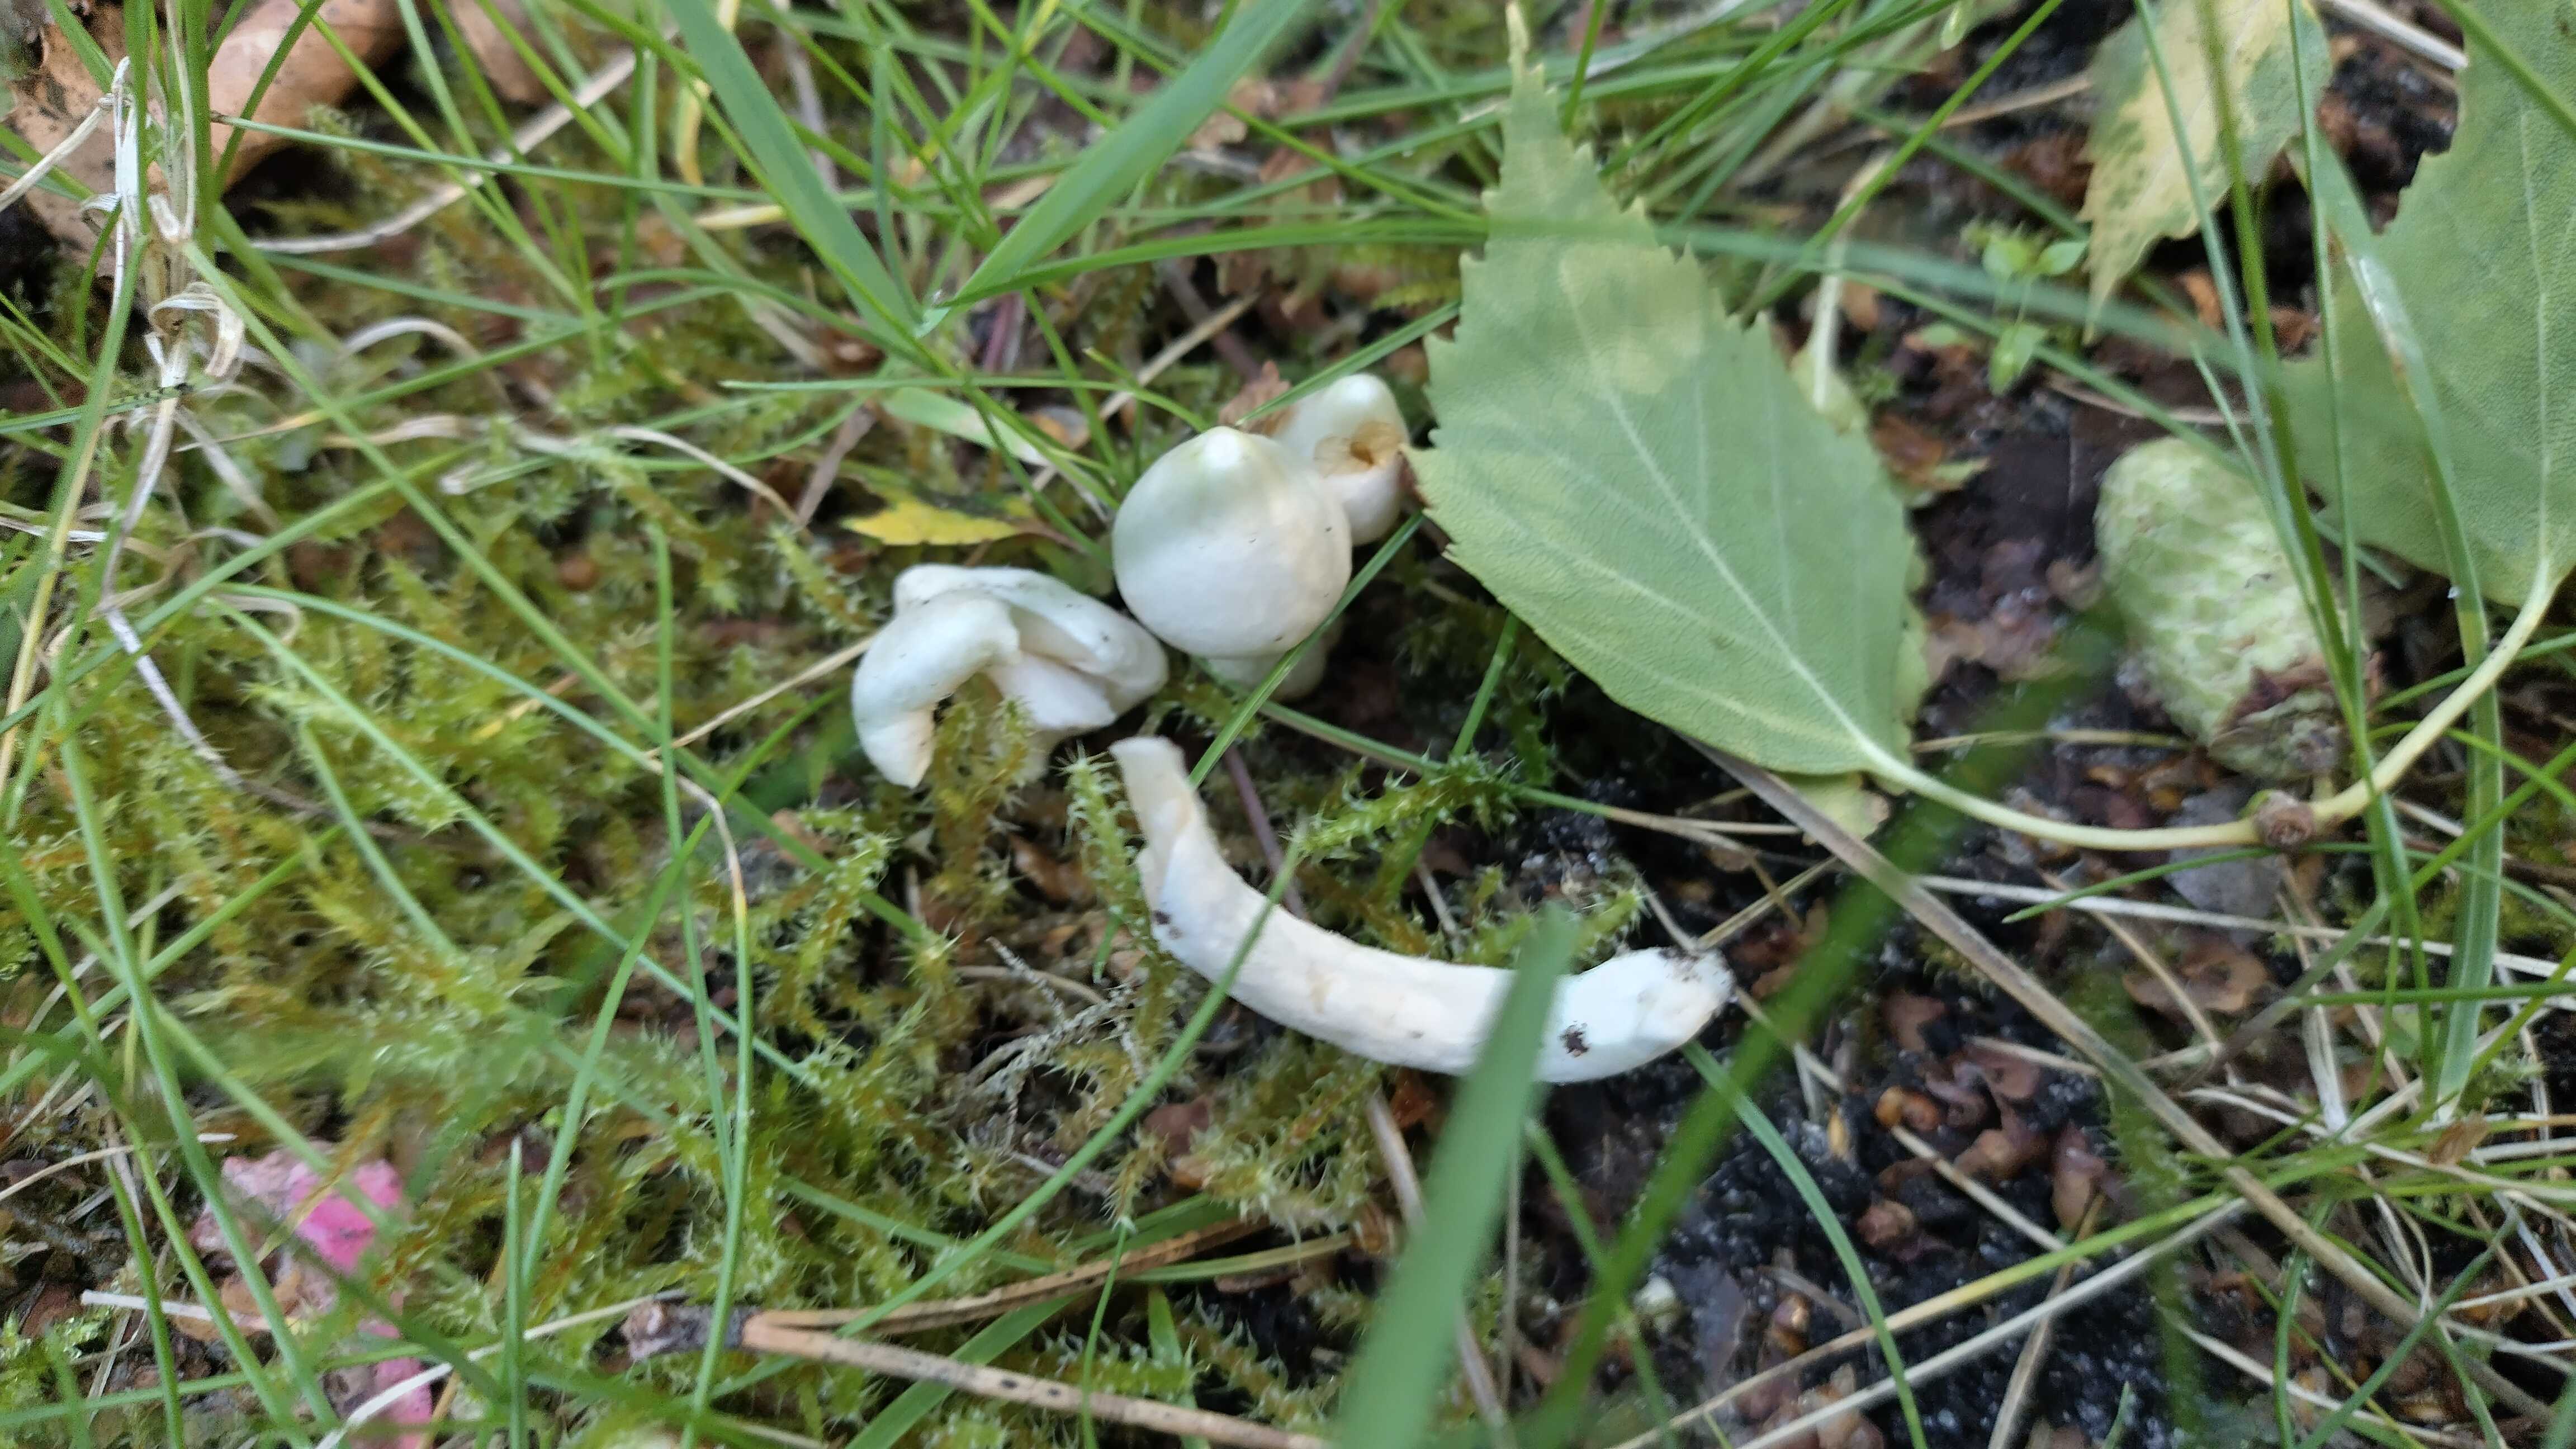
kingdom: Fungi
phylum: Basidiomycota
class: Agaricomycetes
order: Agaricales
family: Inocybaceae
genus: Inocybe
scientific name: Inocybe
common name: almindelig trævlhat
